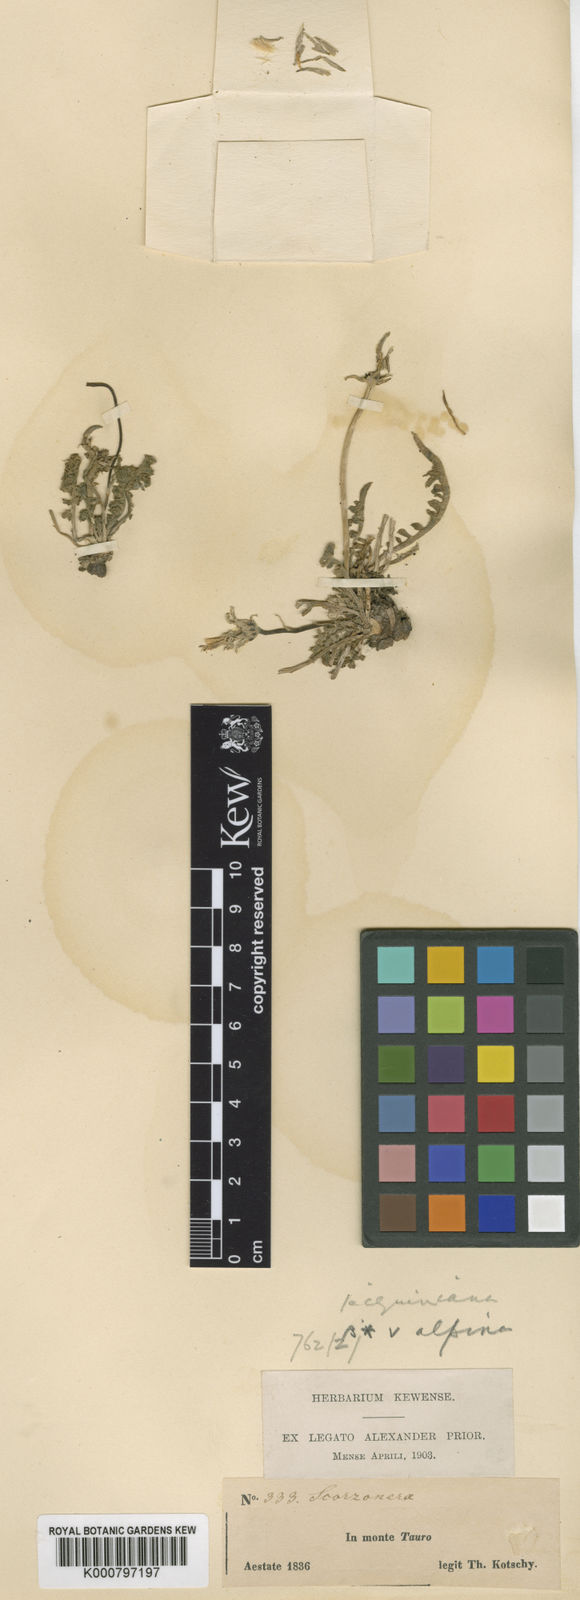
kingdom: Plantae
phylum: Tracheophyta
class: Magnoliopsida
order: Asterales
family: Asteraceae
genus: Scorzonera
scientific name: Scorzonera cana
